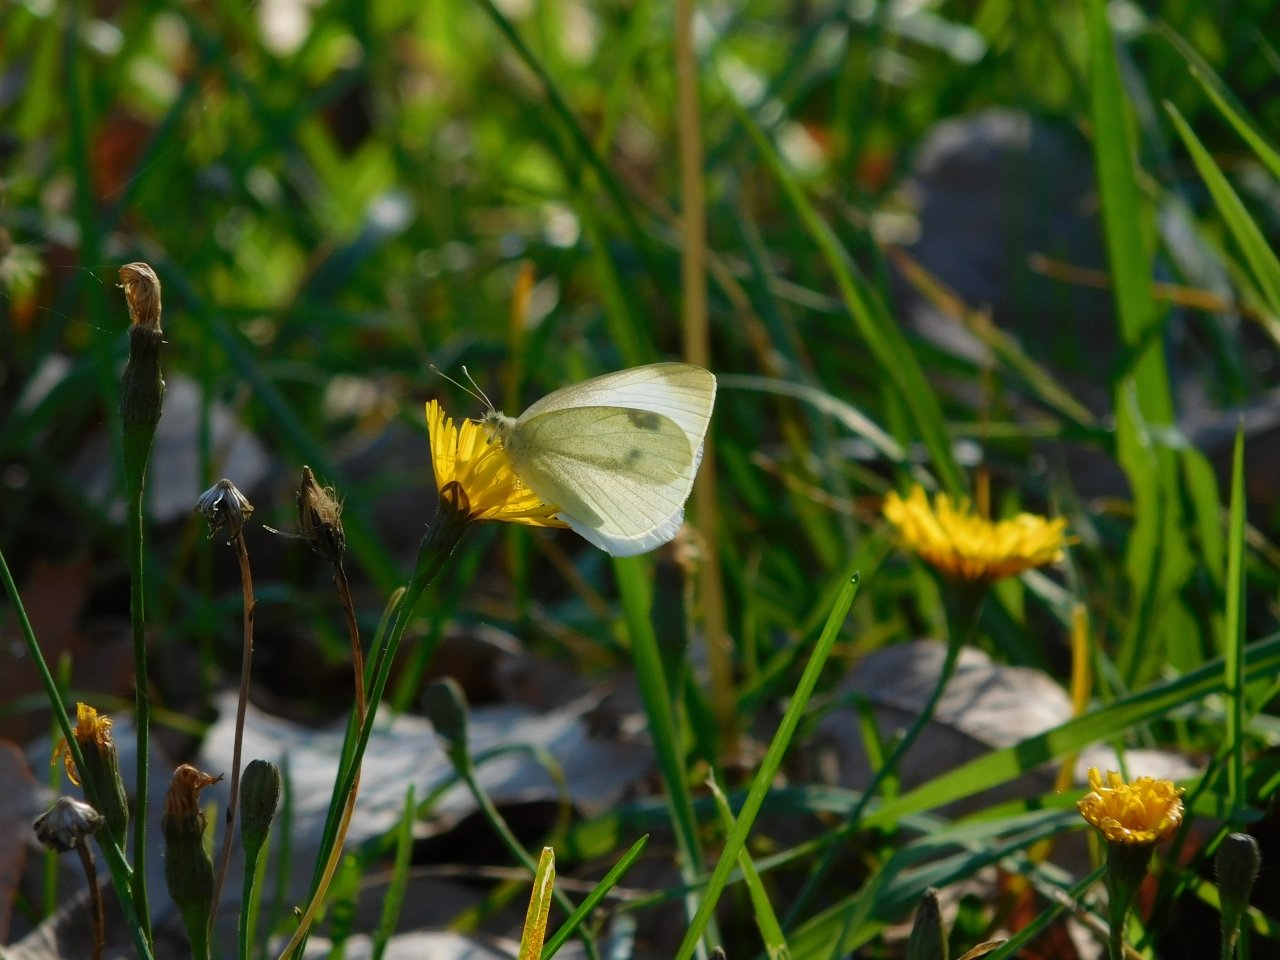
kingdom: Animalia
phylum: Arthropoda
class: Insecta
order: Lepidoptera
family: Pieridae
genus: Pieris
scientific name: Pieris rapae
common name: Cabbage White
